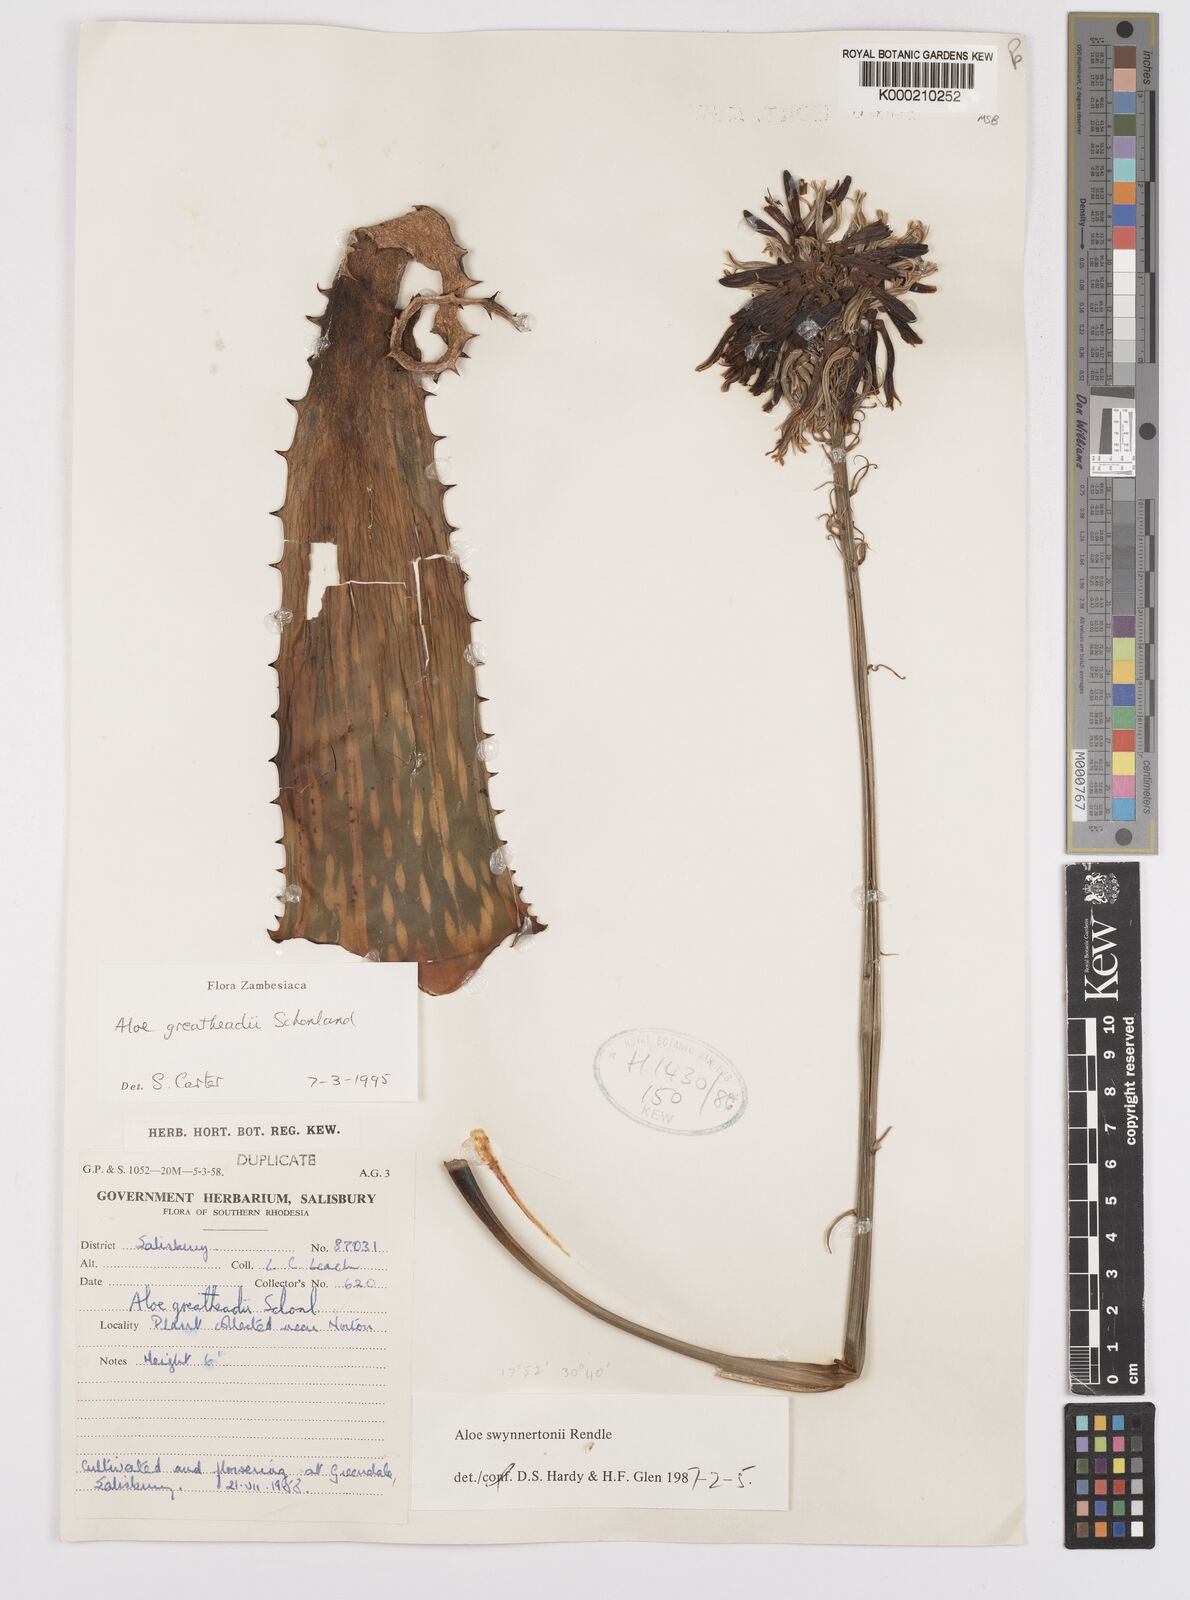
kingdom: Plantae
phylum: Tracheophyta
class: Liliopsida
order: Asparagales
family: Asphodelaceae
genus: Aloe
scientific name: Aloe greatheadii
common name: Greathead's aloe
